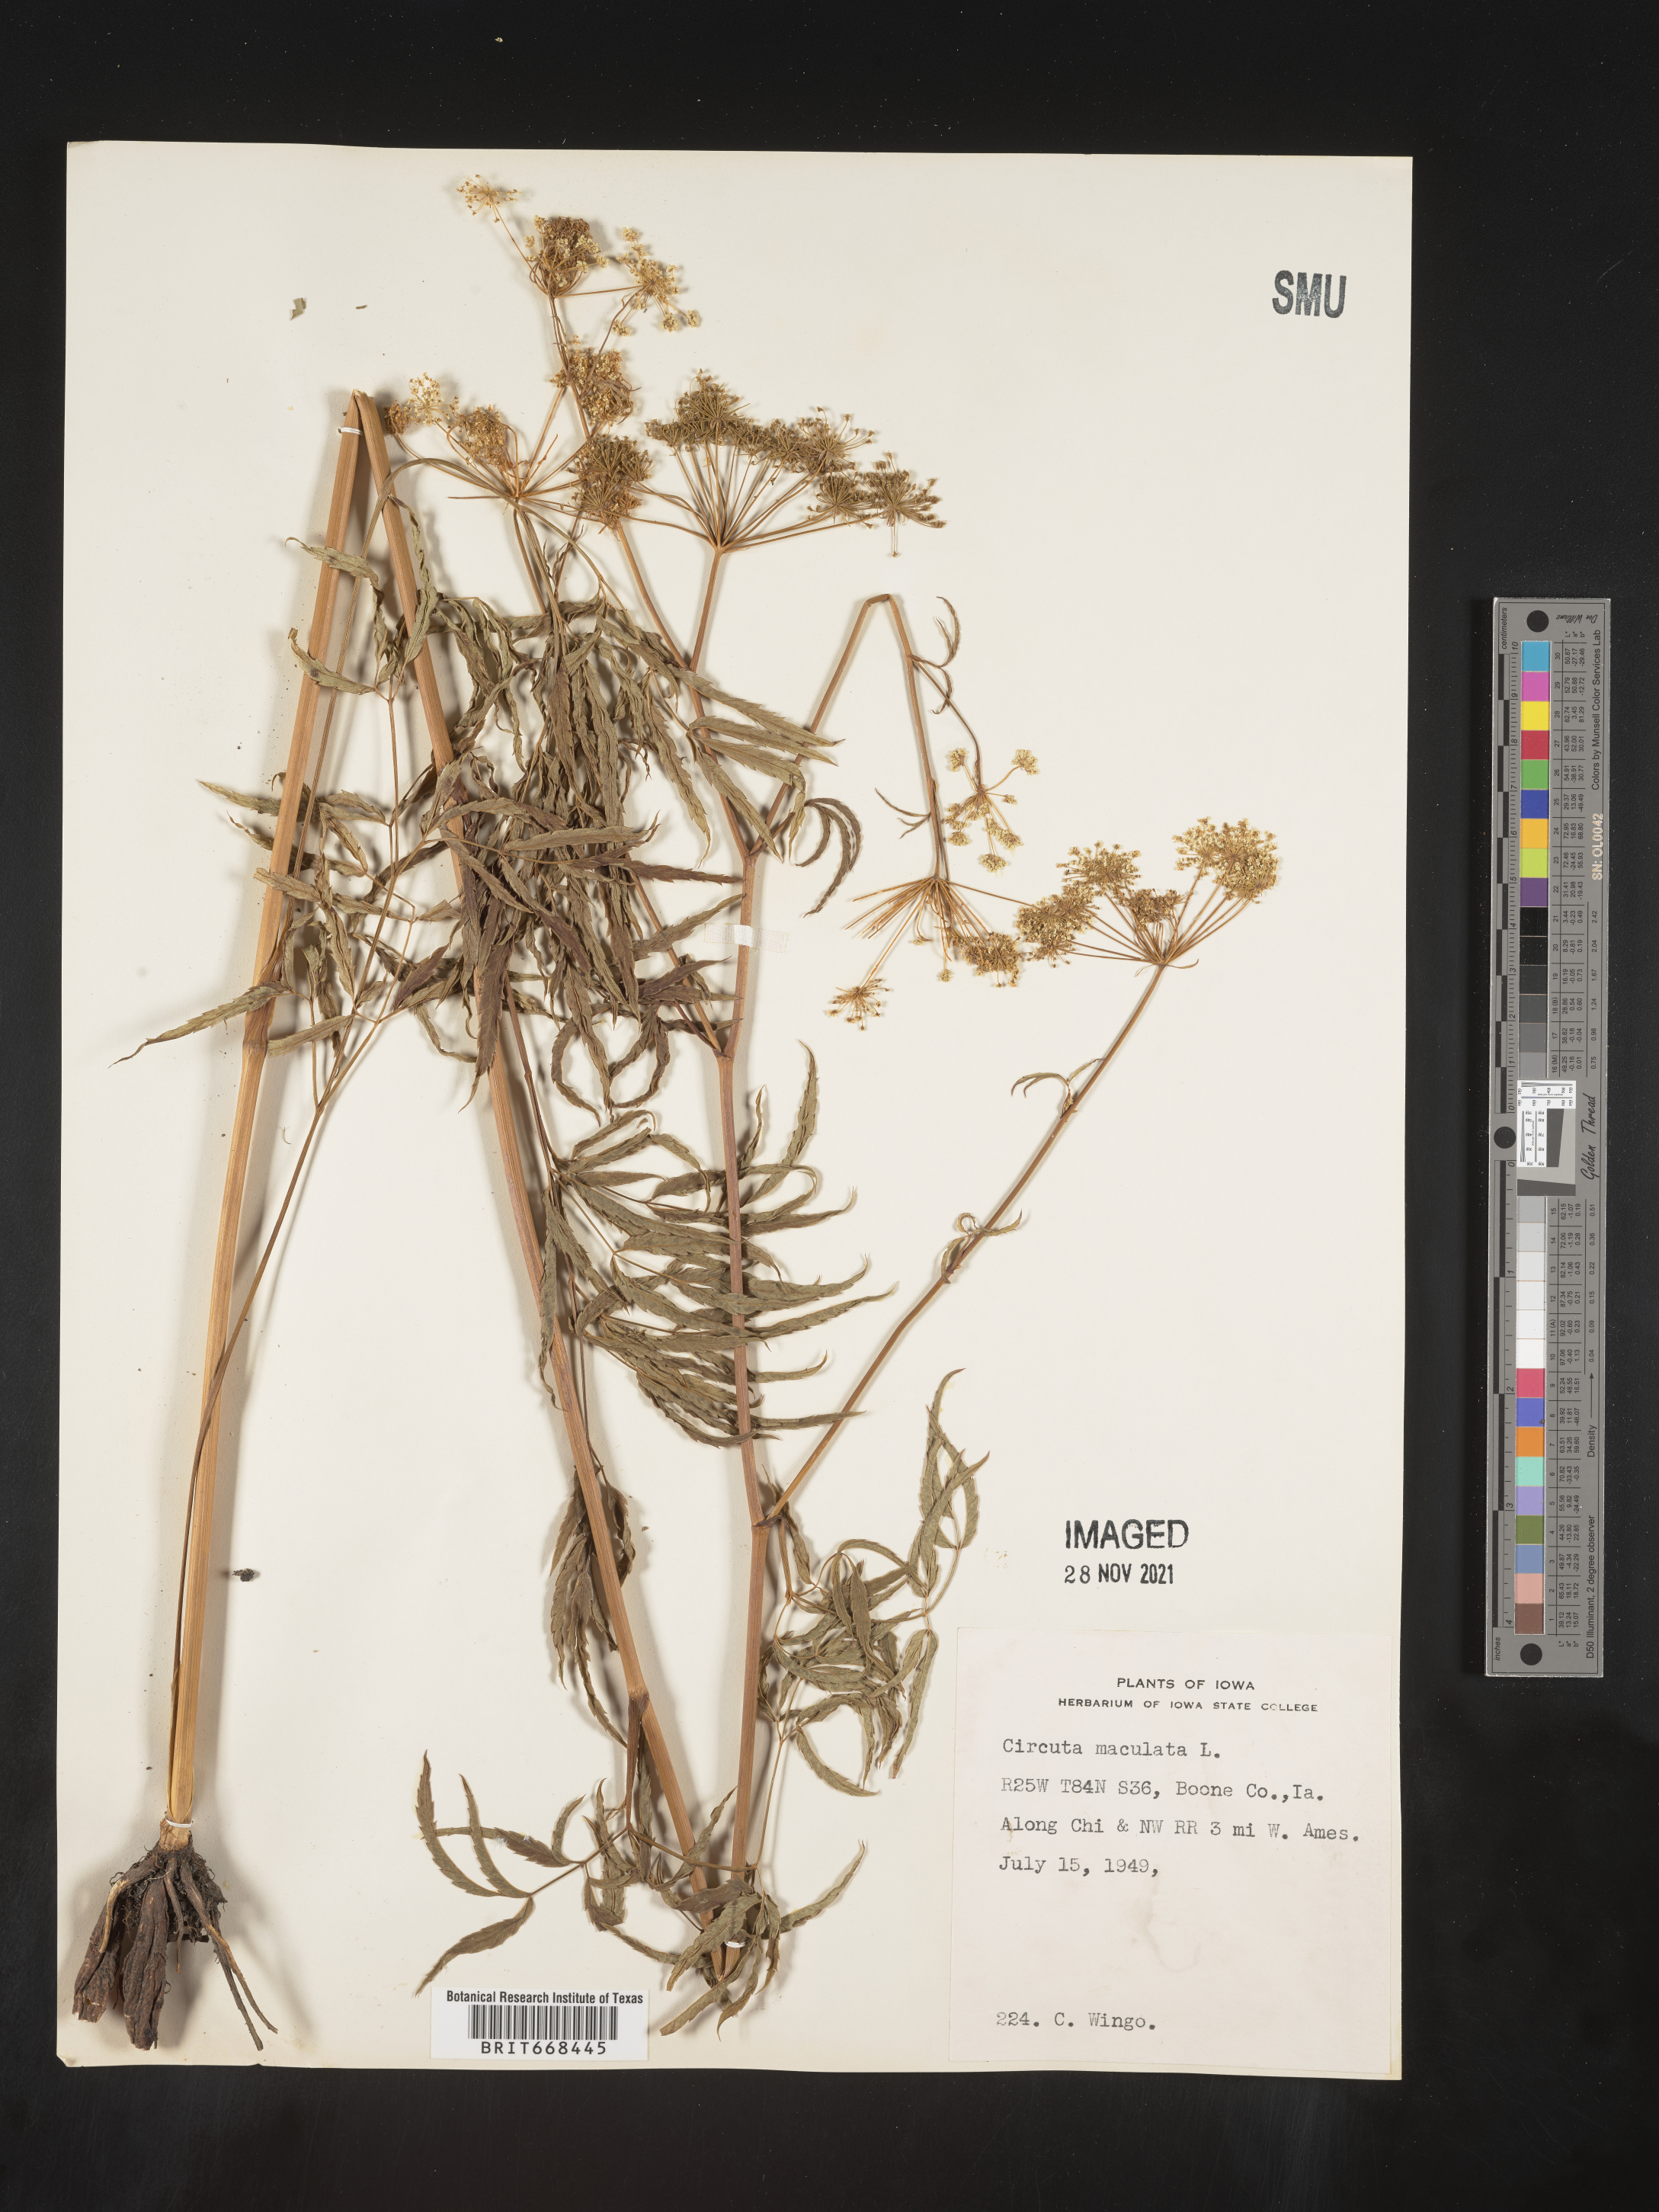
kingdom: Plantae
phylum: Tracheophyta
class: Magnoliopsida
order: Apiales
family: Apiaceae
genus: Cicuta
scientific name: Cicuta maculata
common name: Spotted cowbane
